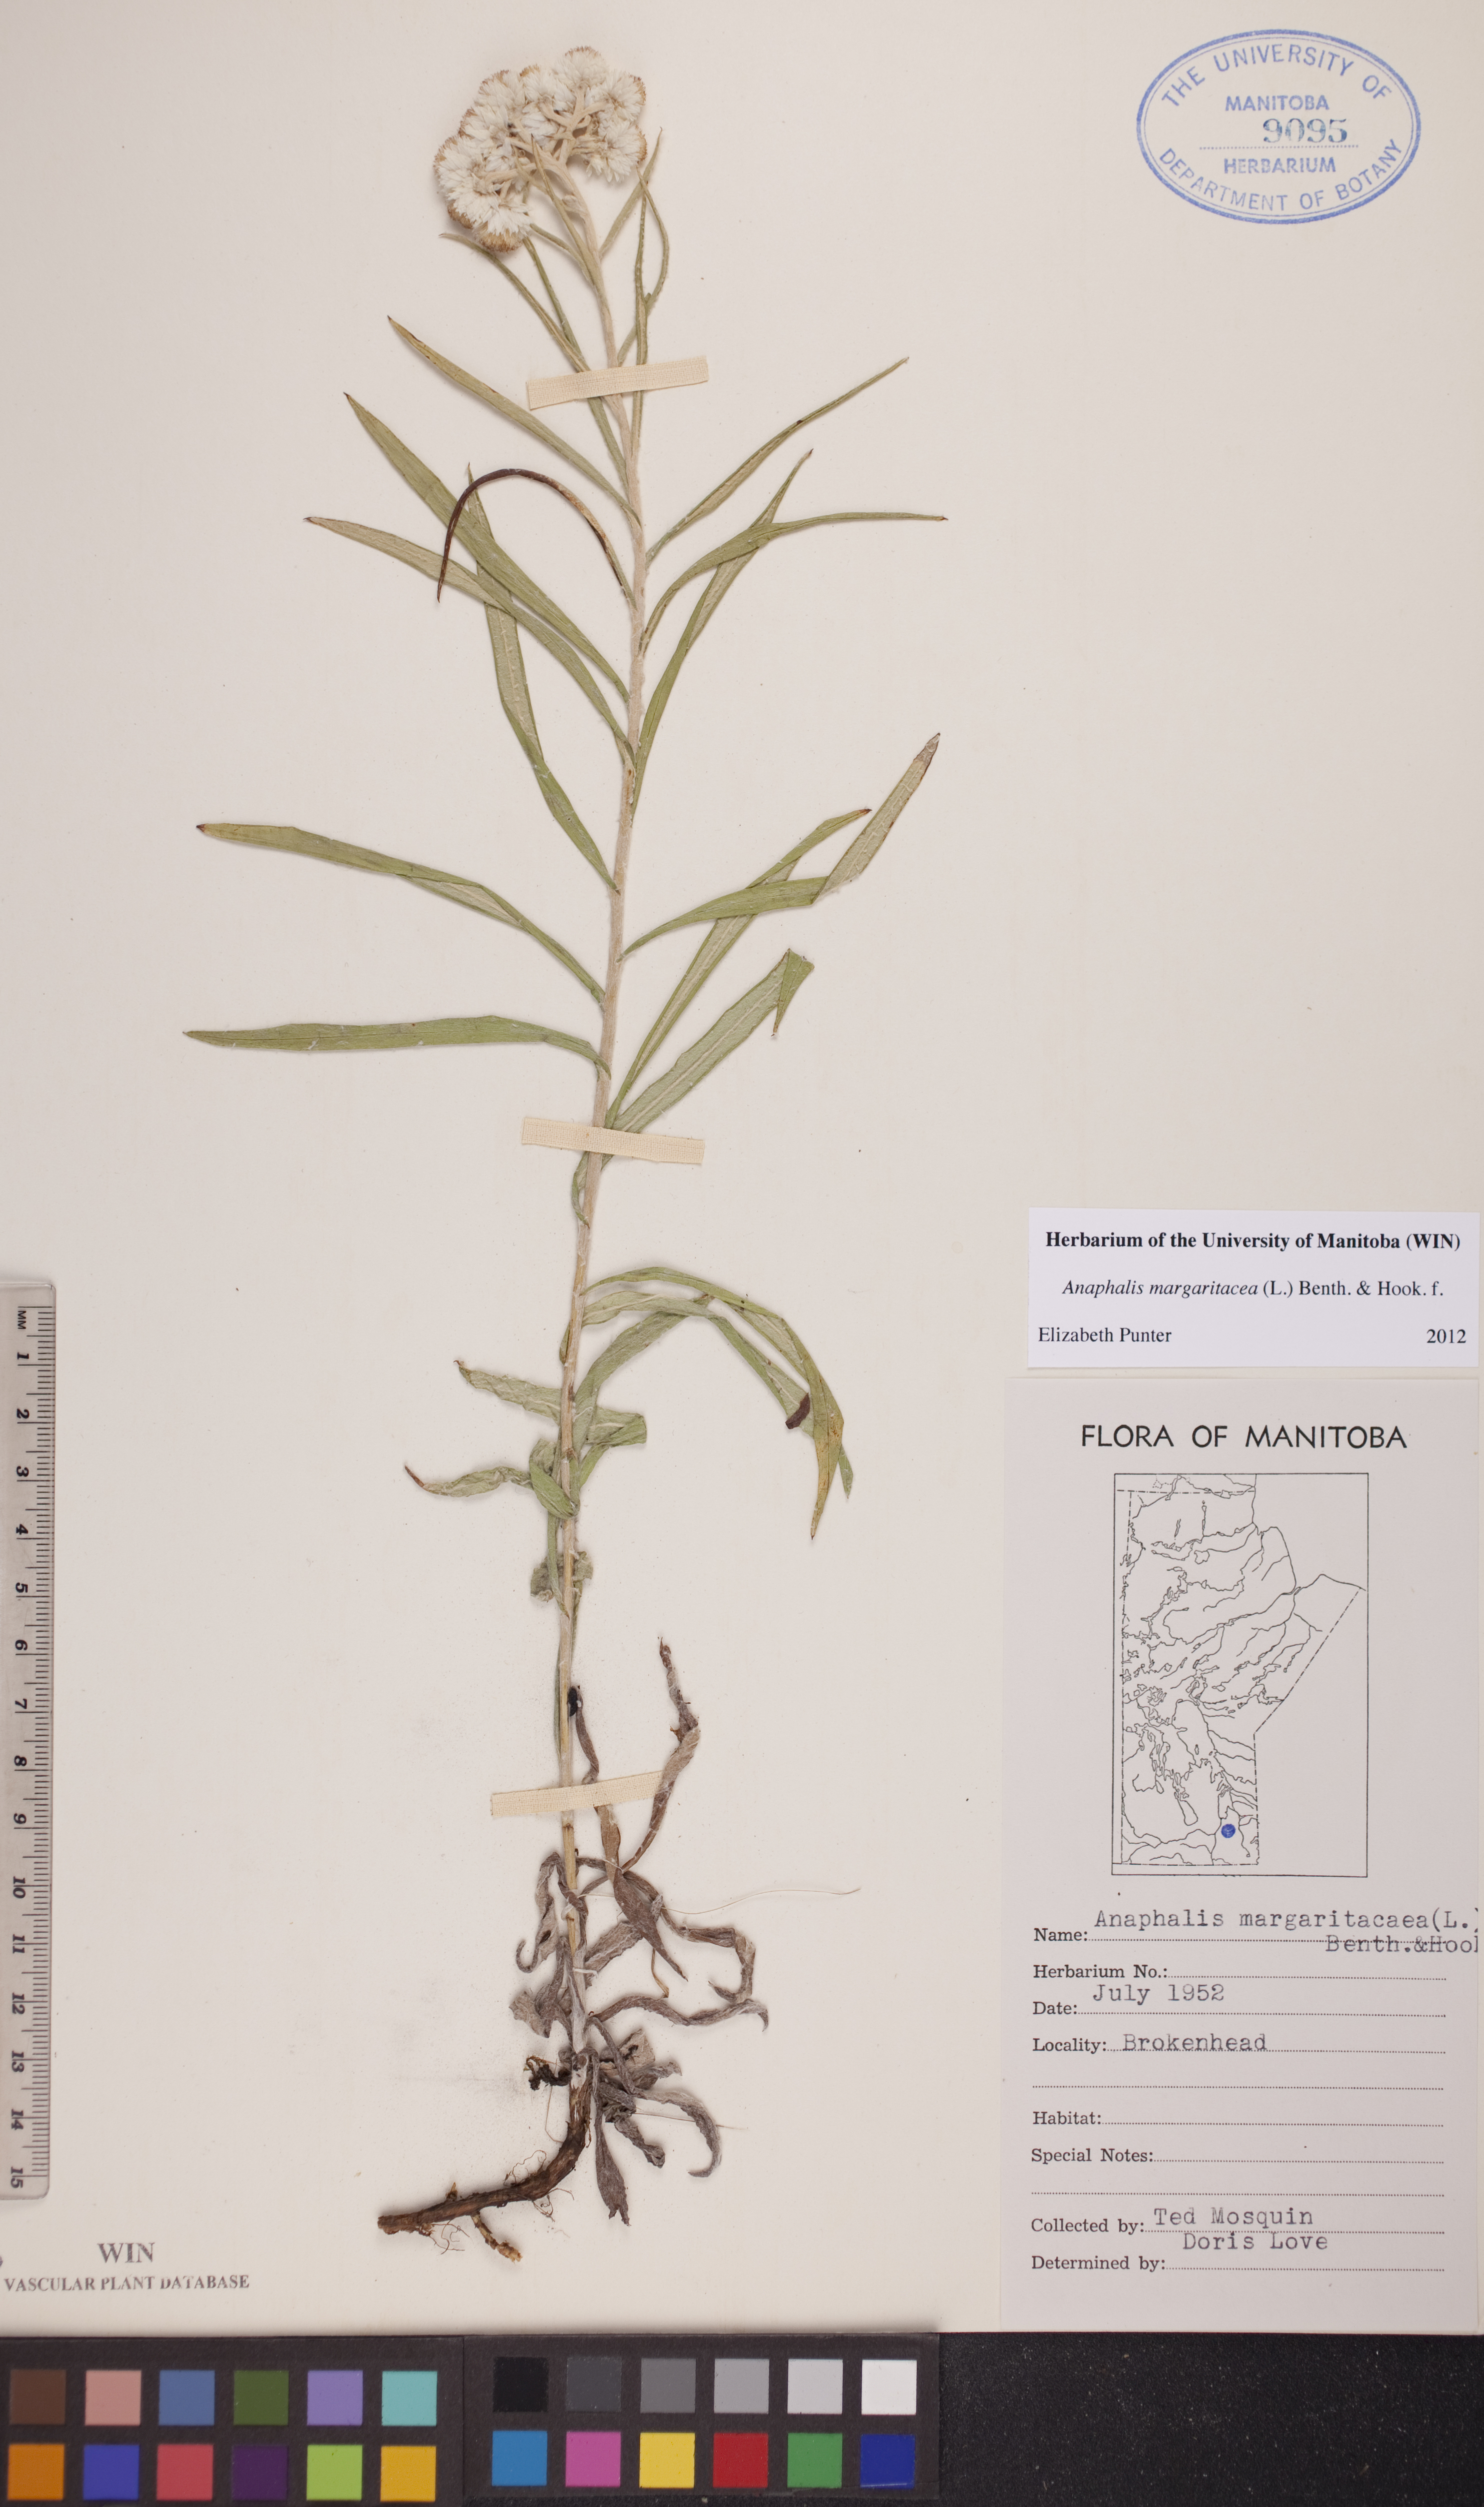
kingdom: Plantae
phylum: Tracheophyta
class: Magnoliopsida
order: Asterales
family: Asteraceae
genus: Anaphalis
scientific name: Anaphalis margaritacea
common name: Pearly everlasting
